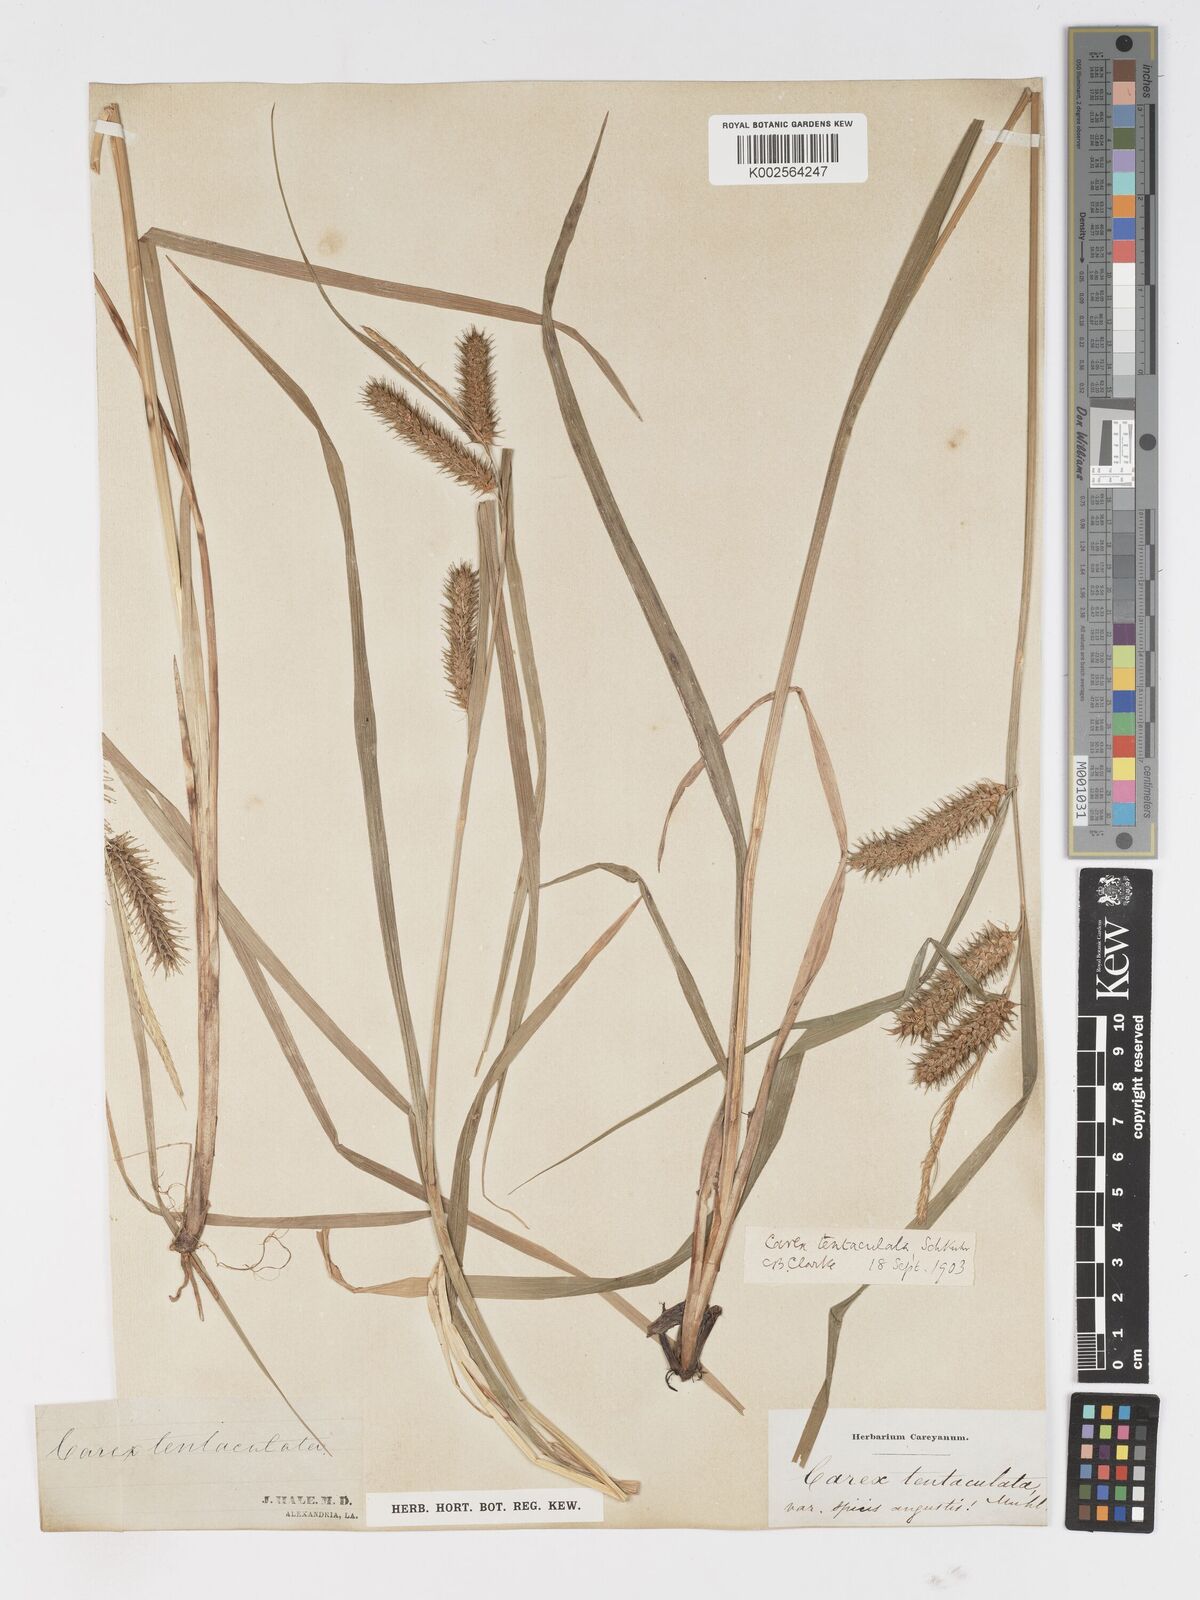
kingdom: Plantae
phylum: Tracheophyta
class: Liliopsida
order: Poales
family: Cyperaceae
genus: Carex
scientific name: Carex lurida
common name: Sallow sedge
